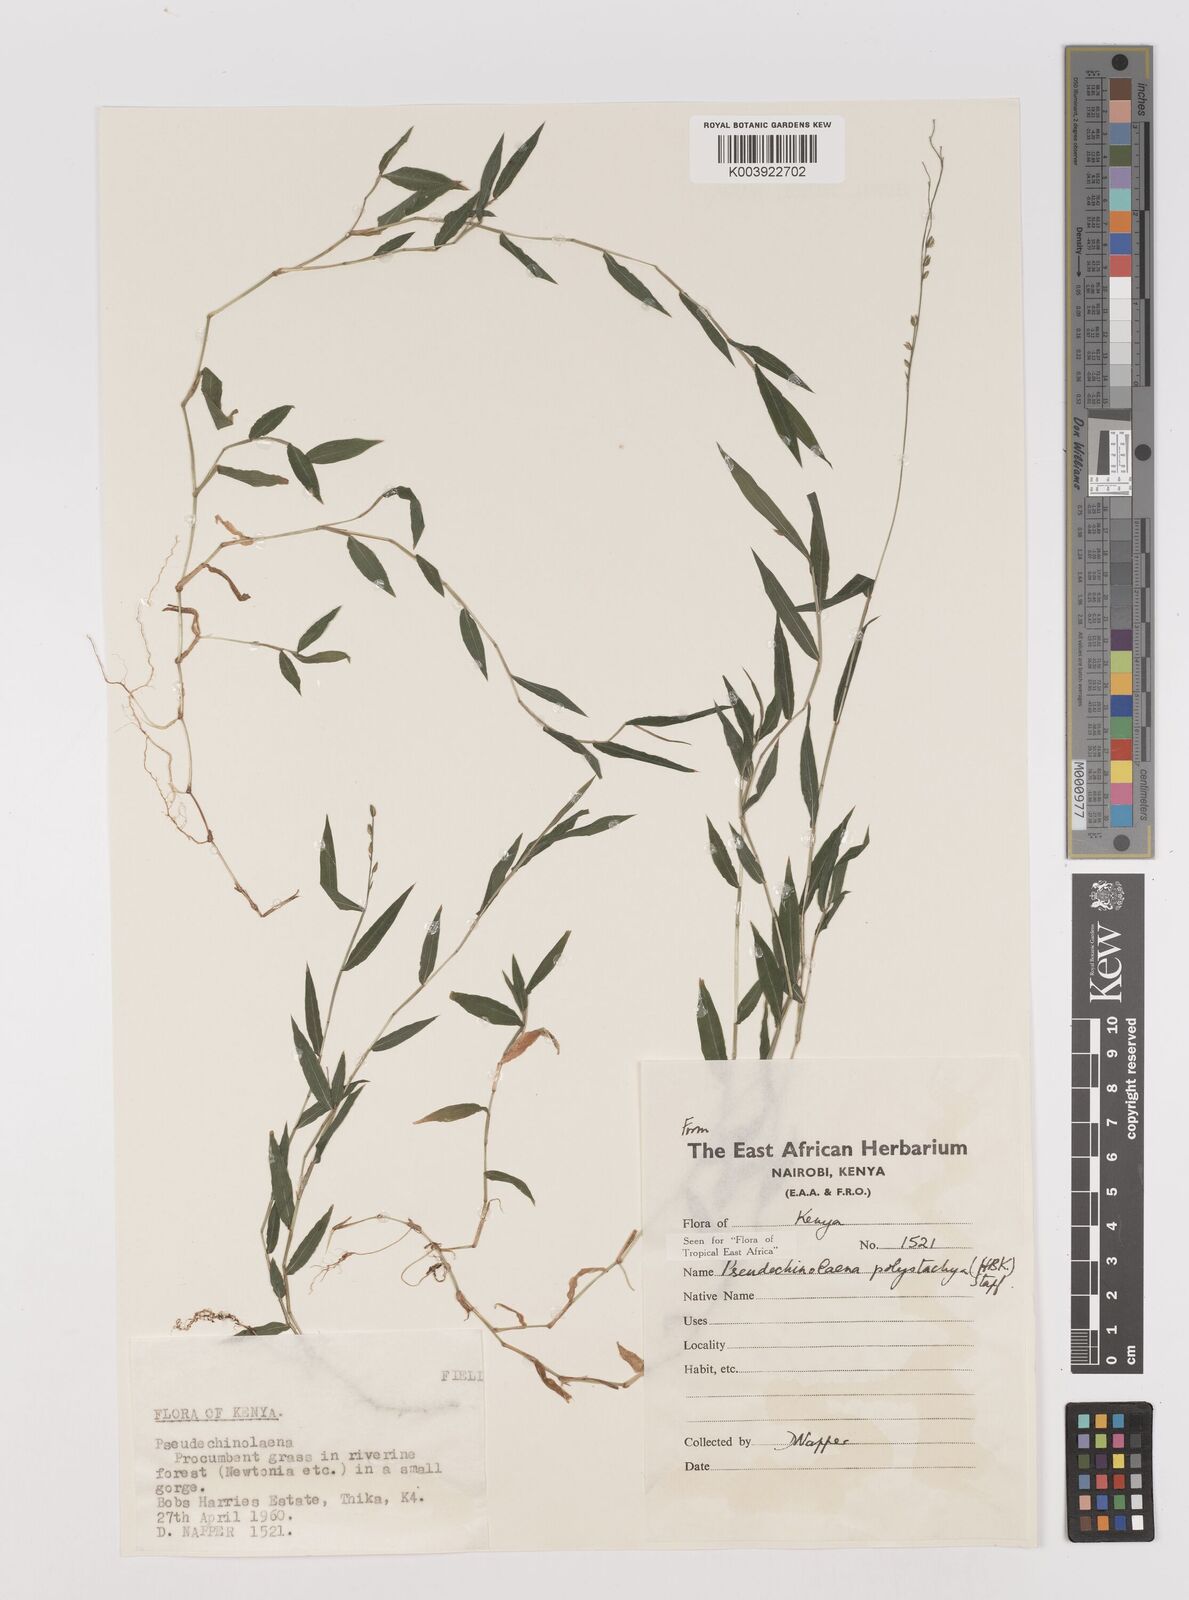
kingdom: Plantae
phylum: Tracheophyta
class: Liliopsida
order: Poales
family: Poaceae
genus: Pseudechinolaena
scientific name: Pseudechinolaena polystachya
